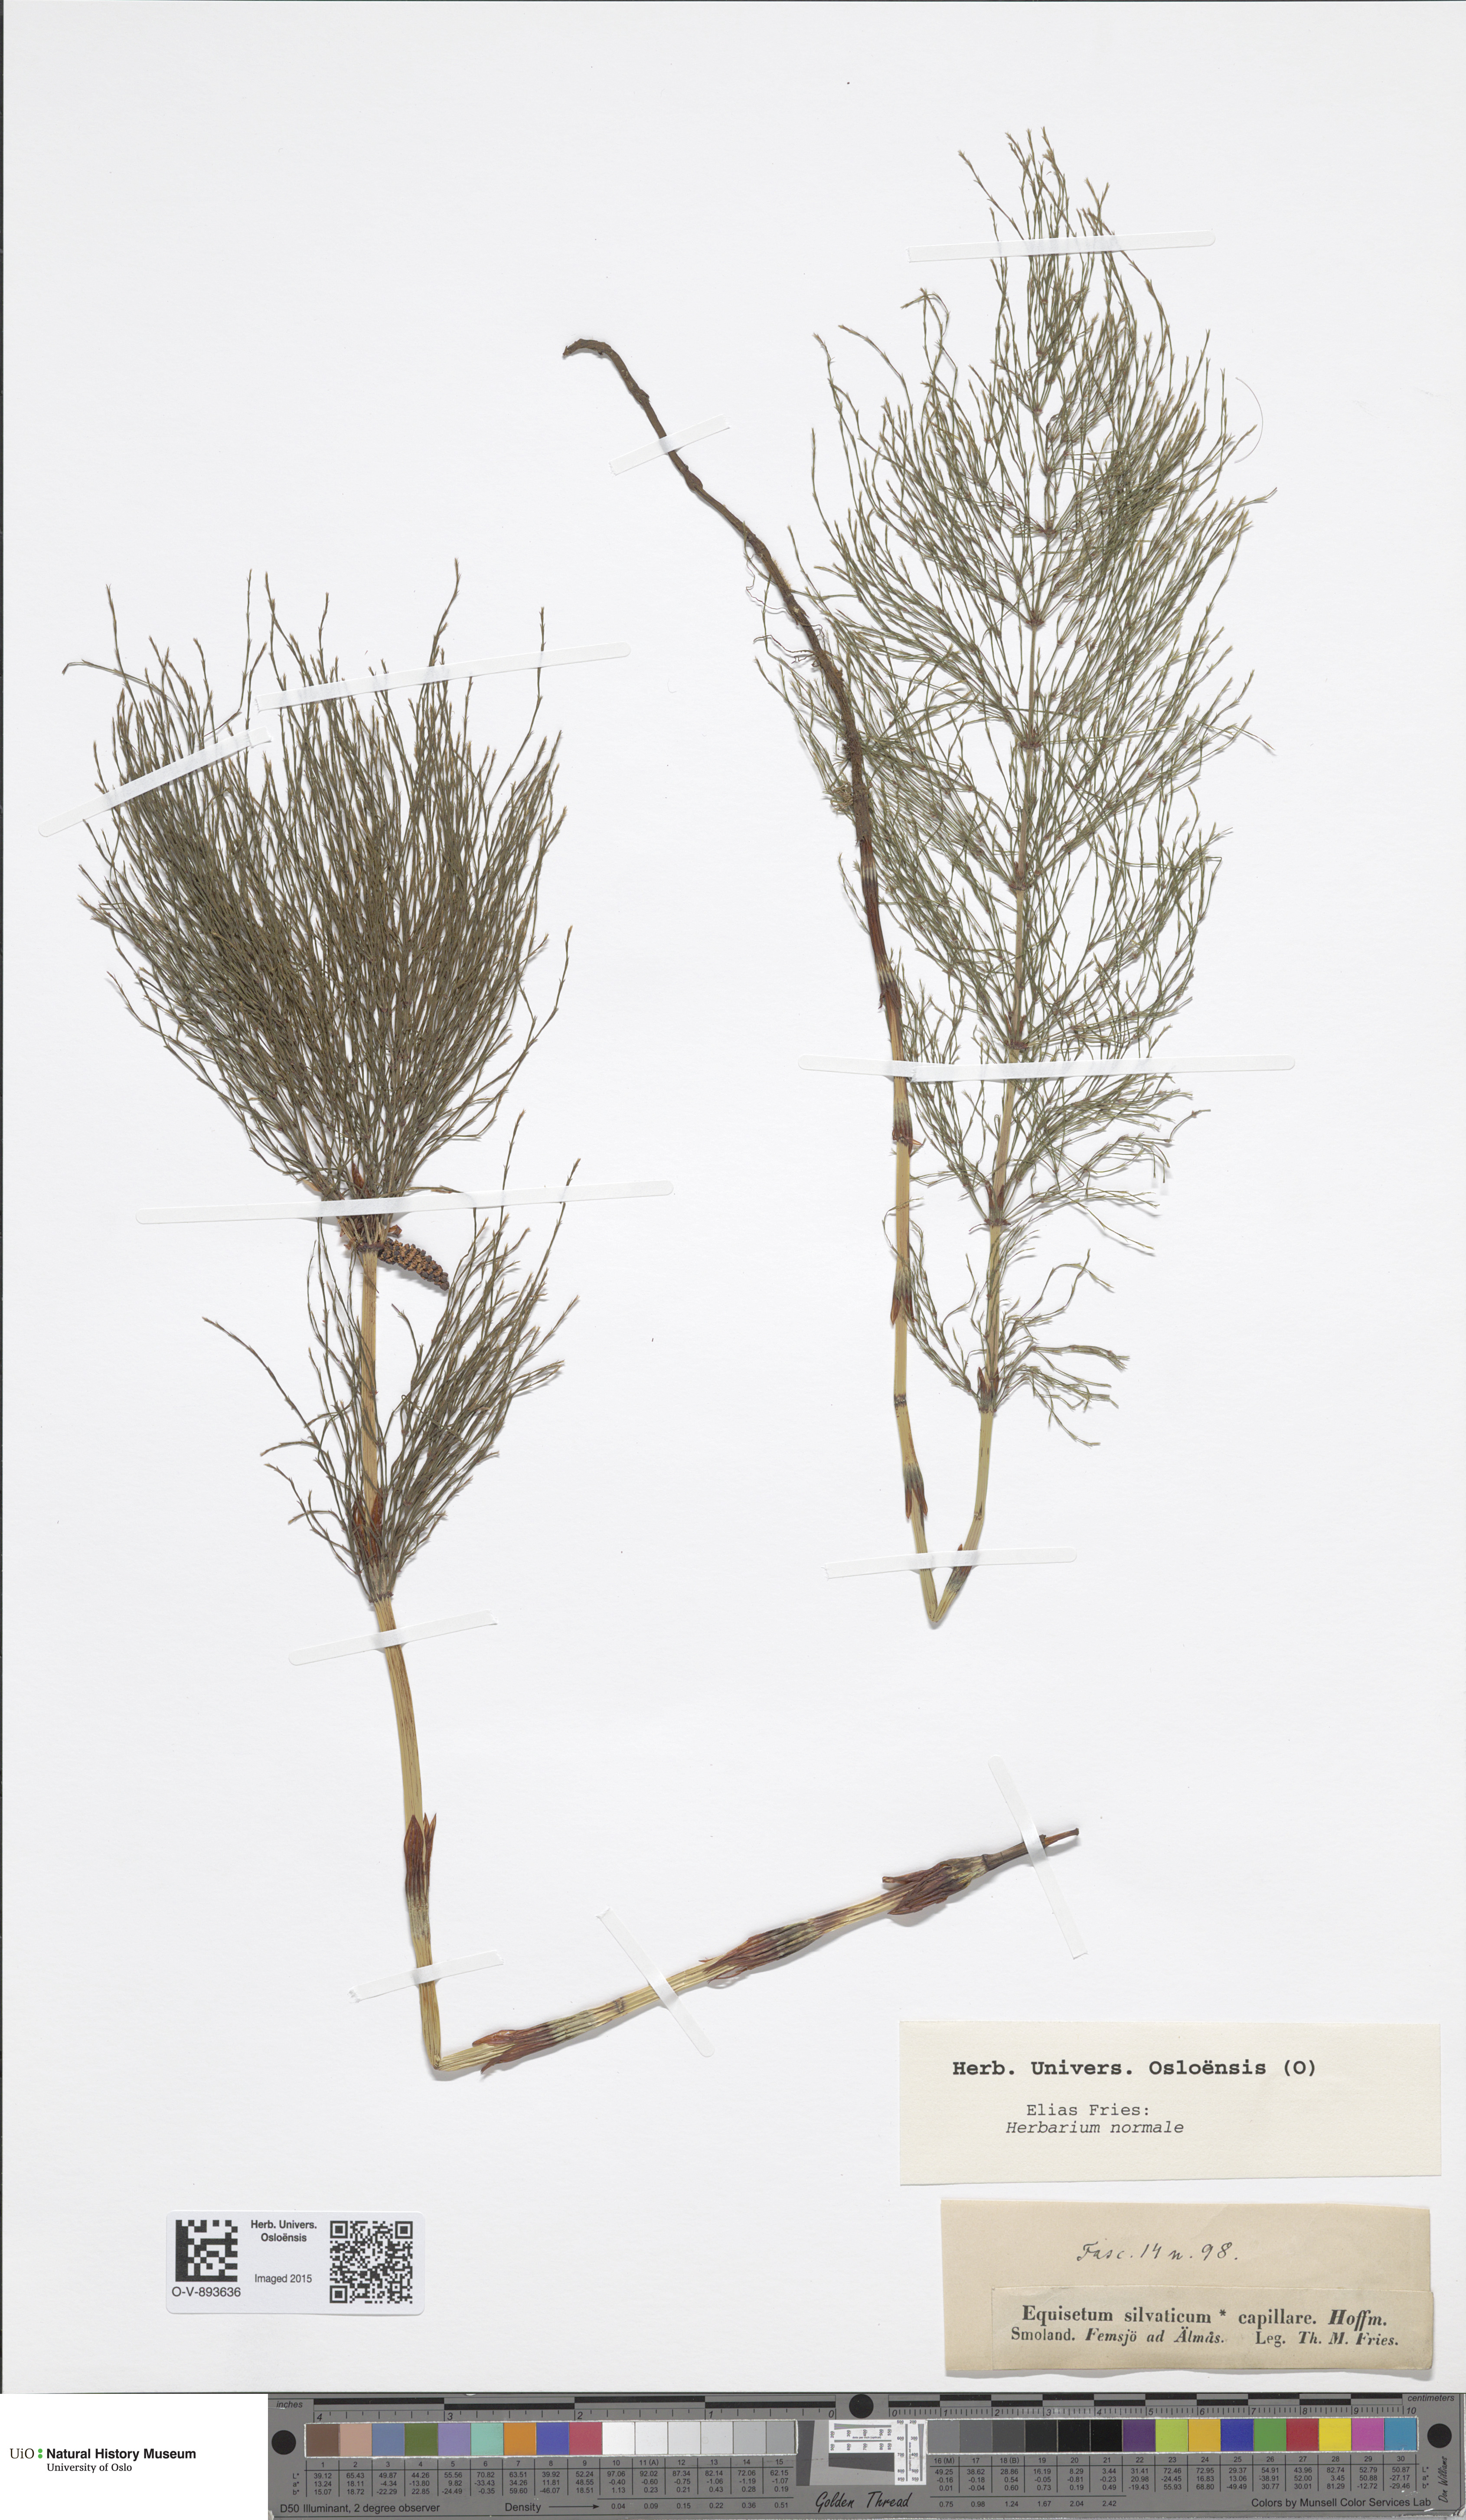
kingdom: Plantae
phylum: Tracheophyta
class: Polypodiopsida
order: Equisetales
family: Equisetaceae
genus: Equisetum
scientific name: Equisetum sylvaticum
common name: Wood horsetail
